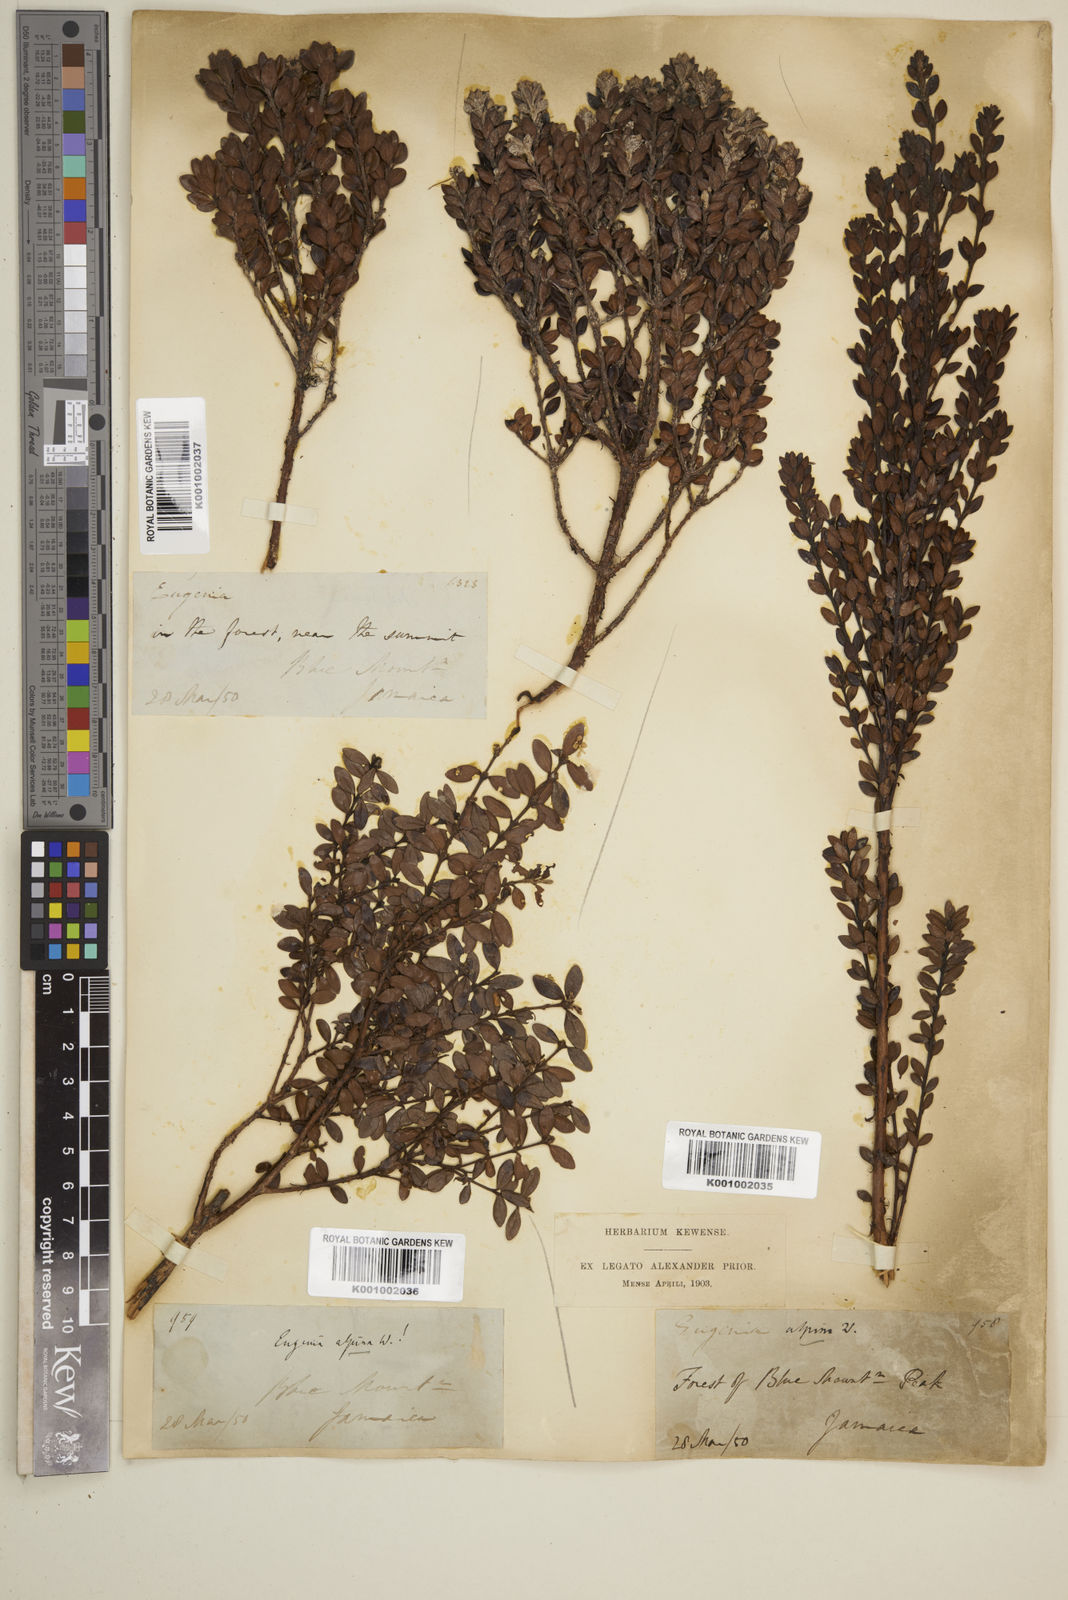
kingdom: Plantae
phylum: Tracheophyta
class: Magnoliopsida
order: Myrtales
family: Myrtaceae
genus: Eugenia
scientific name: Eugenia alpina
